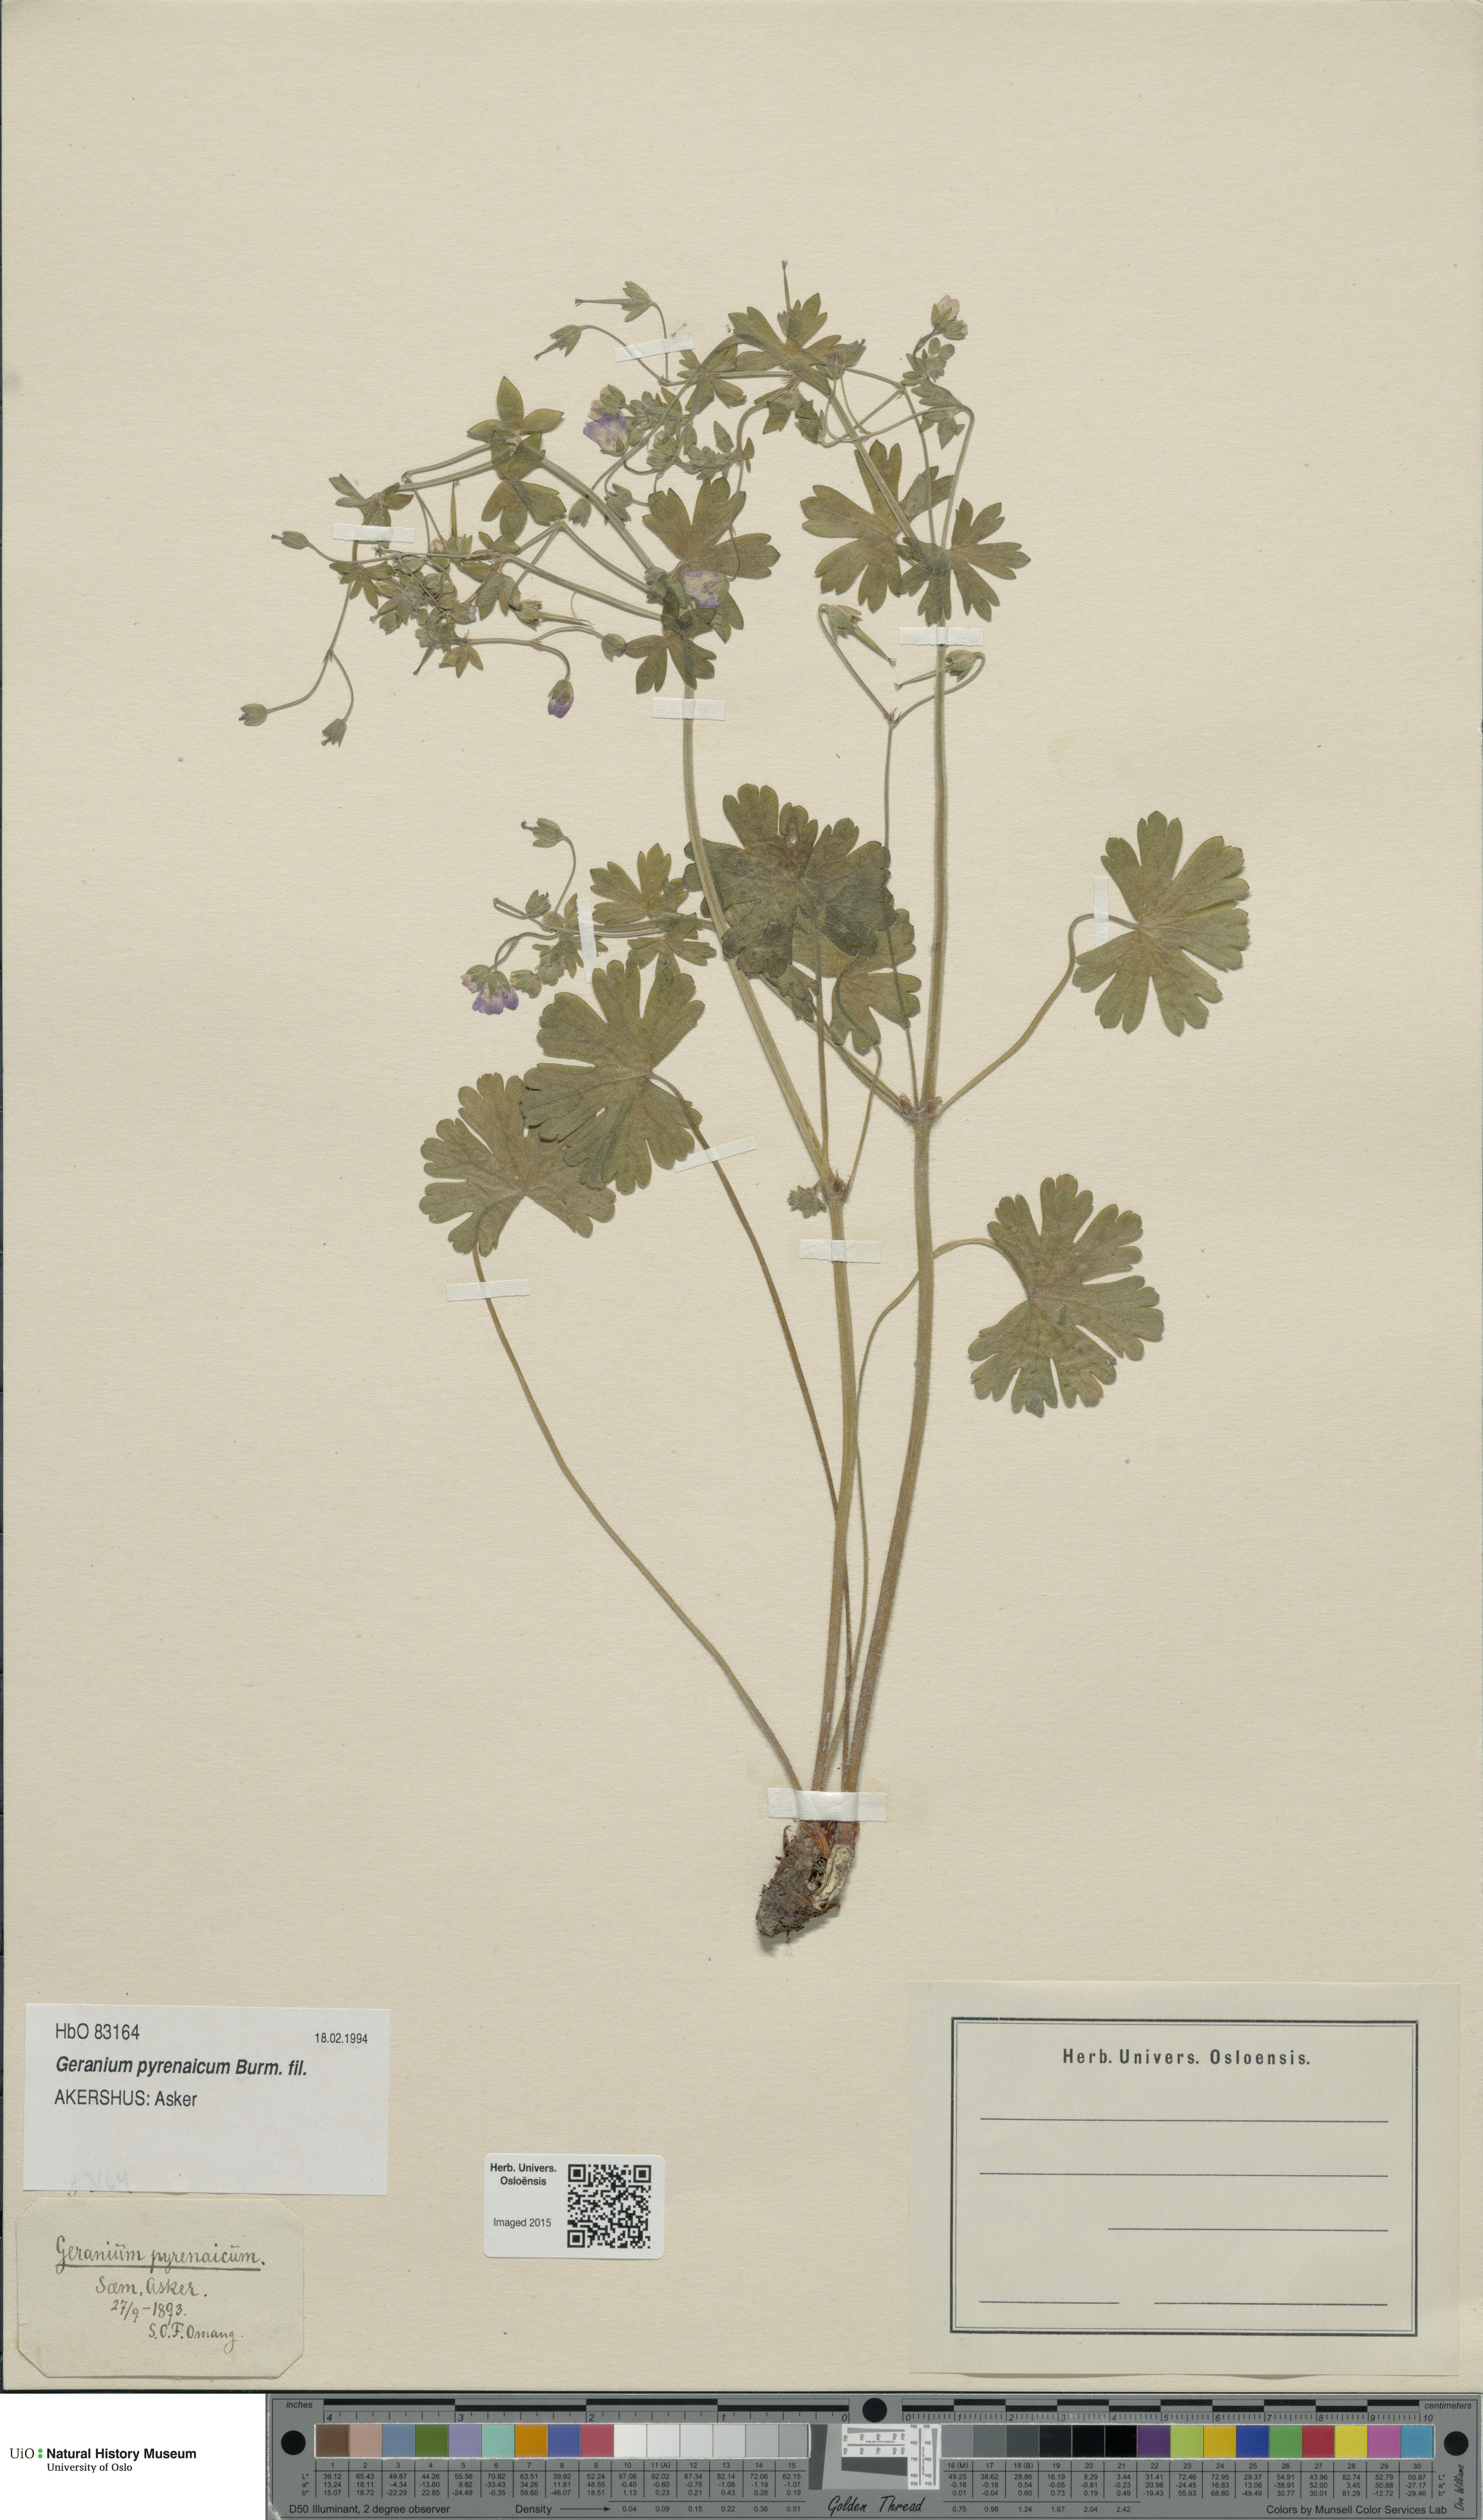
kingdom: Plantae
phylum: Tracheophyta
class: Magnoliopsida
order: Geraniales
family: Geraniaceae
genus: Geranium
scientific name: Geranium pyrenaicum
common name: Hedgerow crane's-bill
